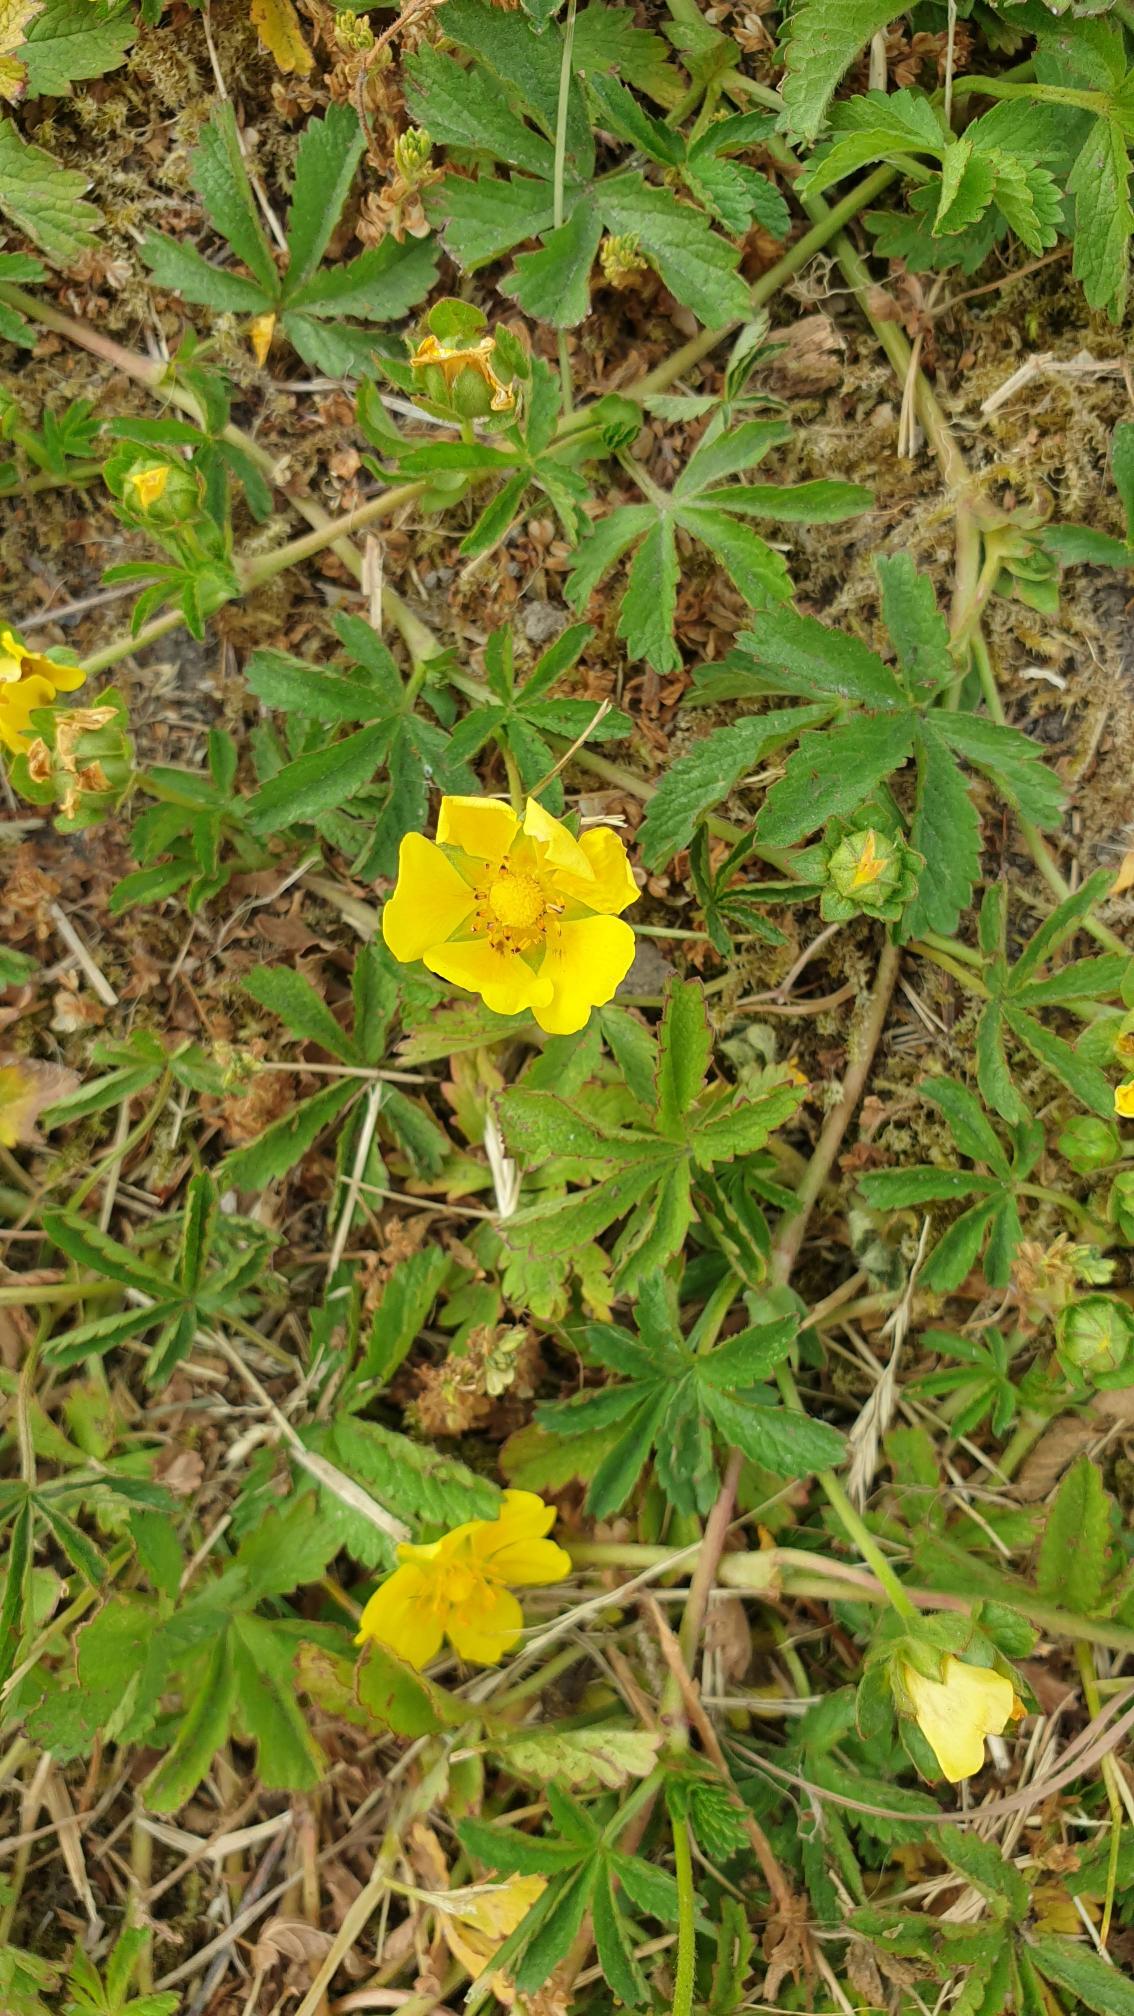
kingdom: Plantae
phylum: Tracheophyta
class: Magnoliopsida
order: Rosales
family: Rosaceae
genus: Potentilla
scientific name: Potentilla reptans
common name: Krybende potentil
